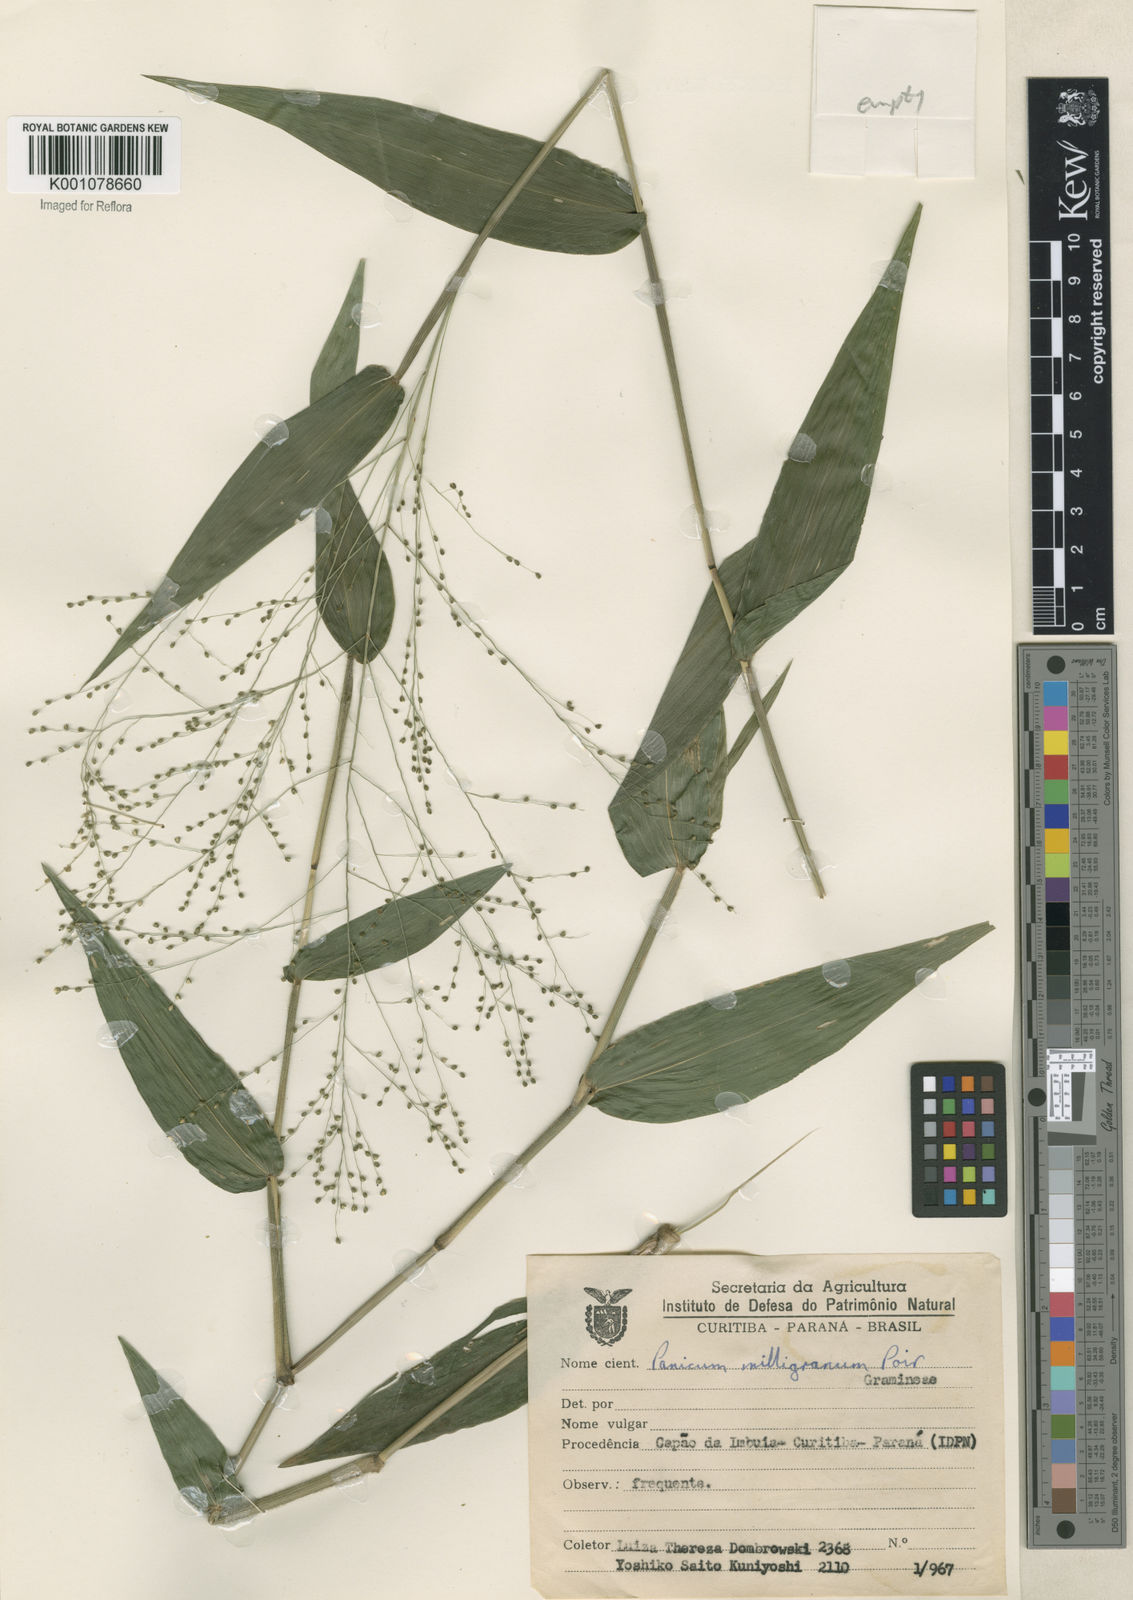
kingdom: Plantae
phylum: Tracheophyta
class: Liliopsida
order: Poales
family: Poaceae
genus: Panicum
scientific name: Panicum millegrana
